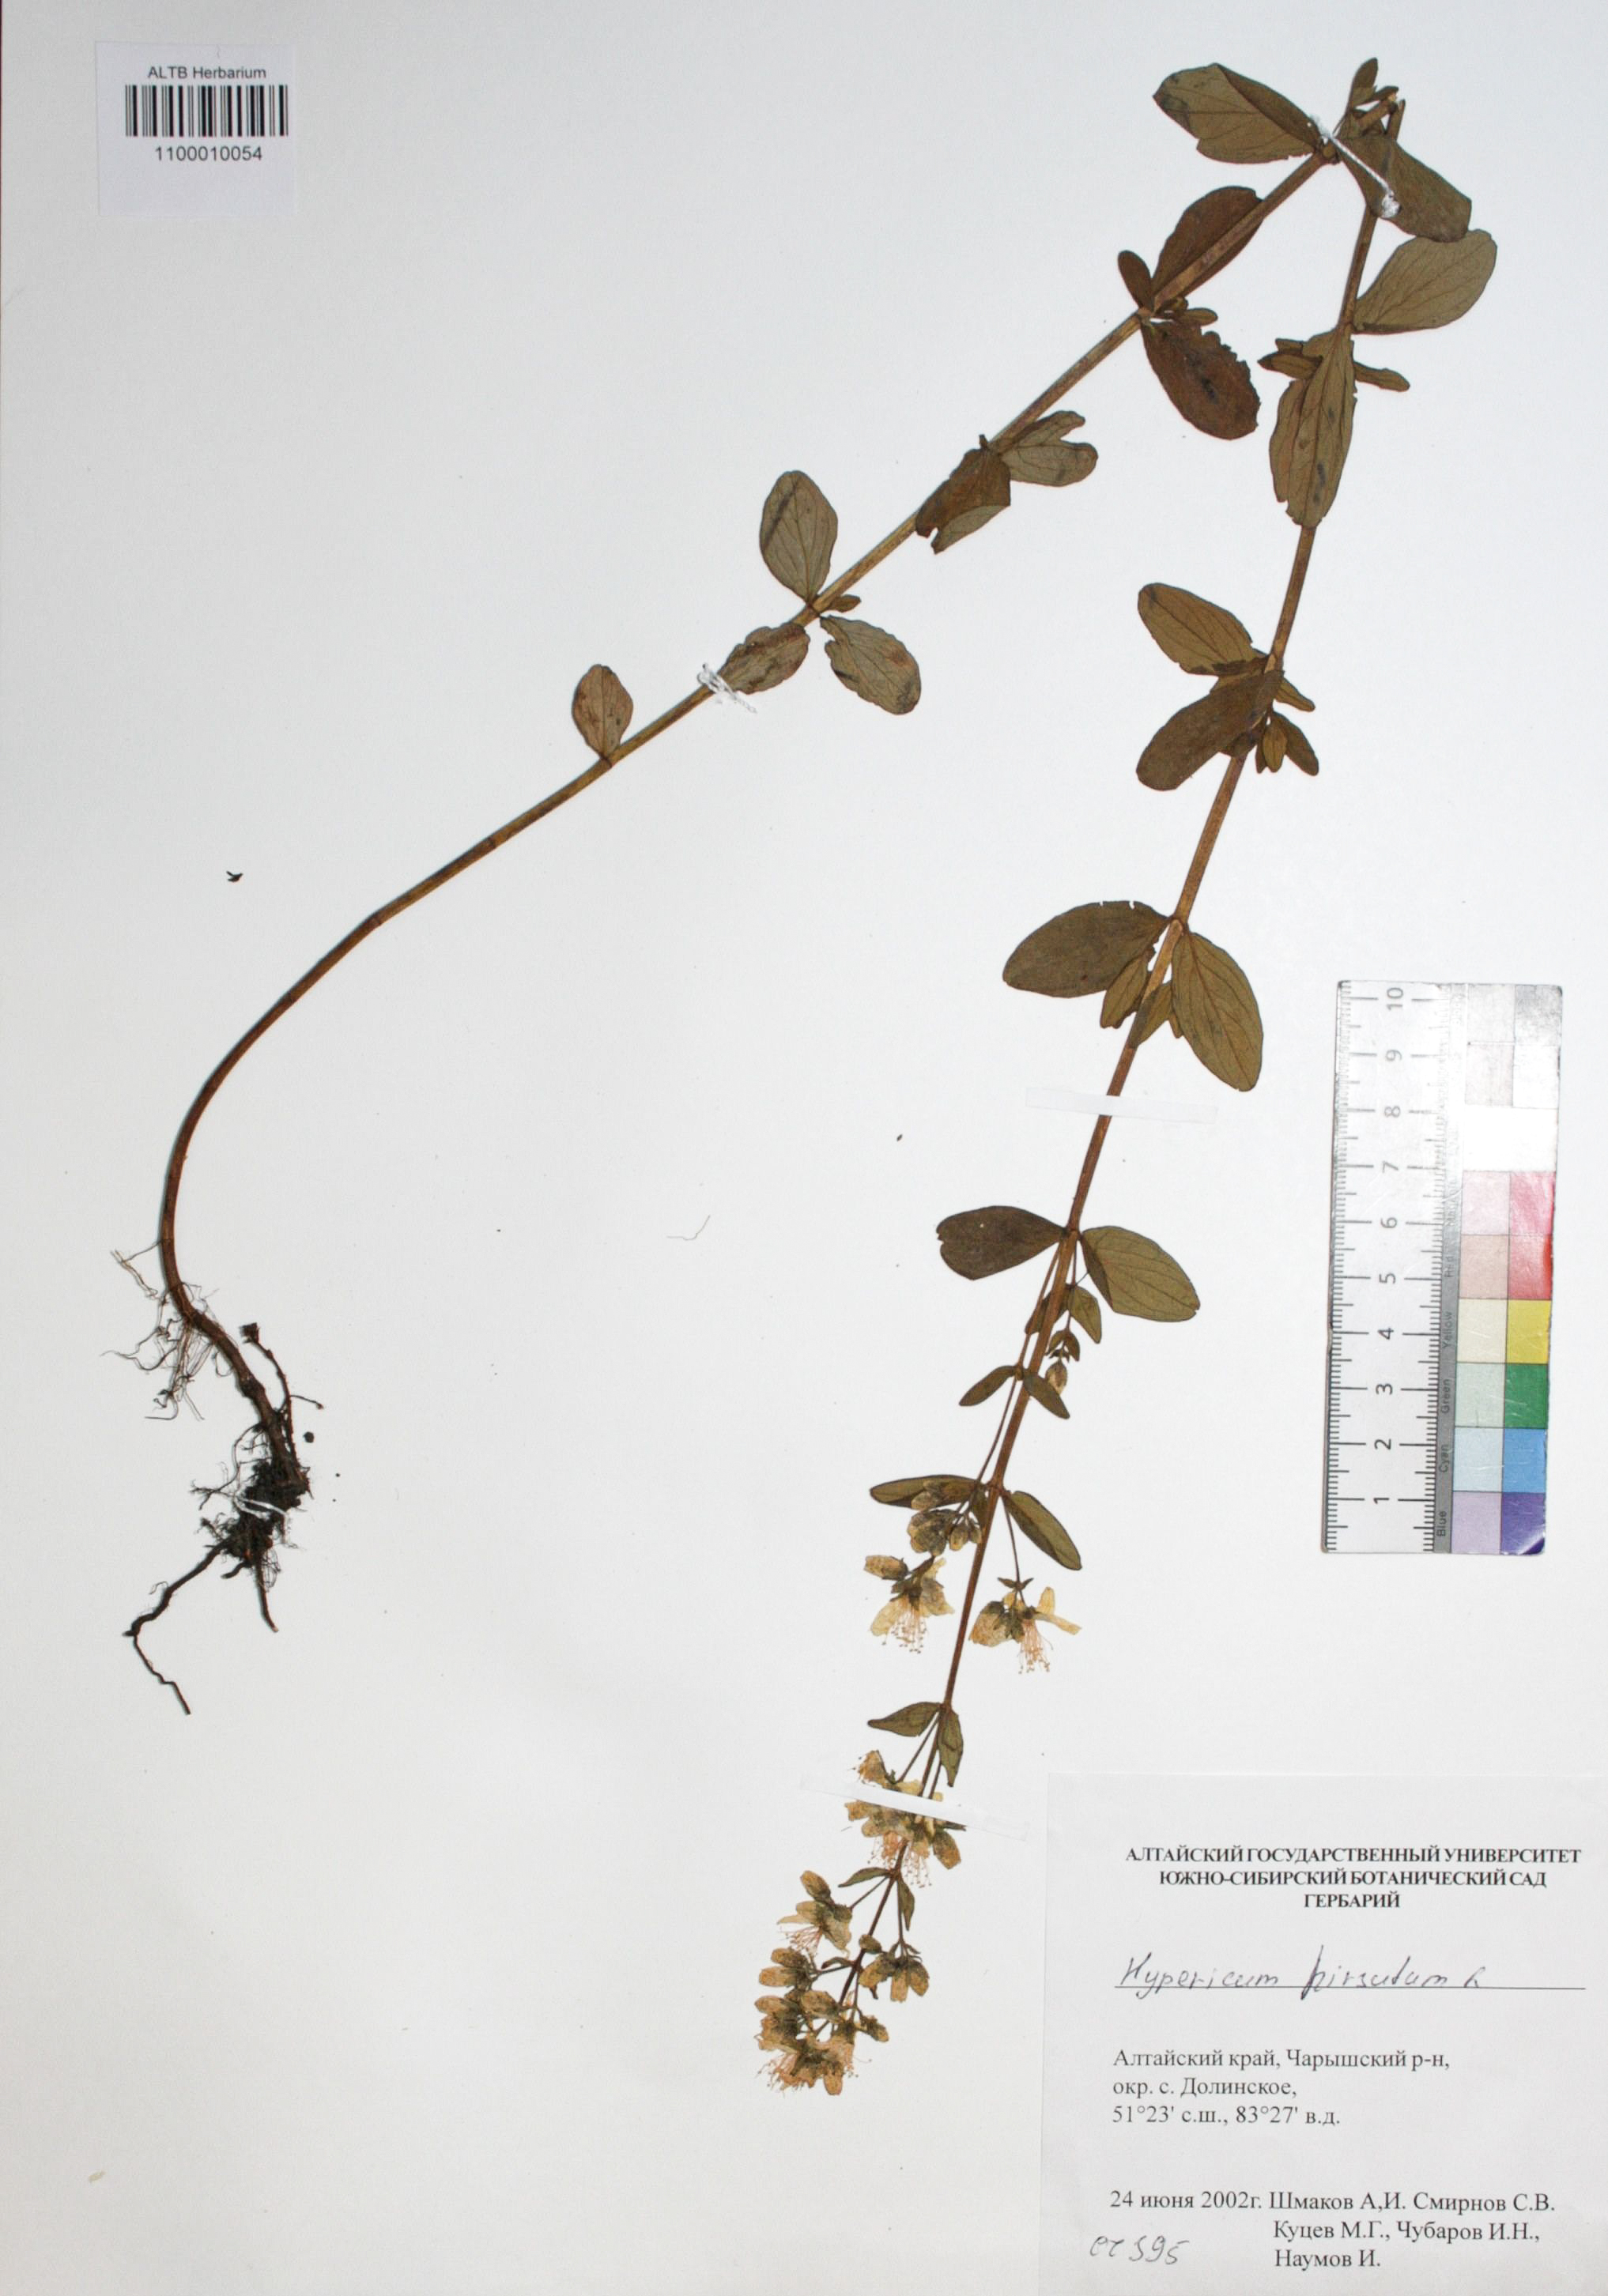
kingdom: Plantae
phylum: Tracheophyta
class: Magnoliopsida
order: Malpighiales
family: Hypericaceae
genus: Hypericum
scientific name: Hypericum hirsutum
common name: Hairy st. john's-wort
